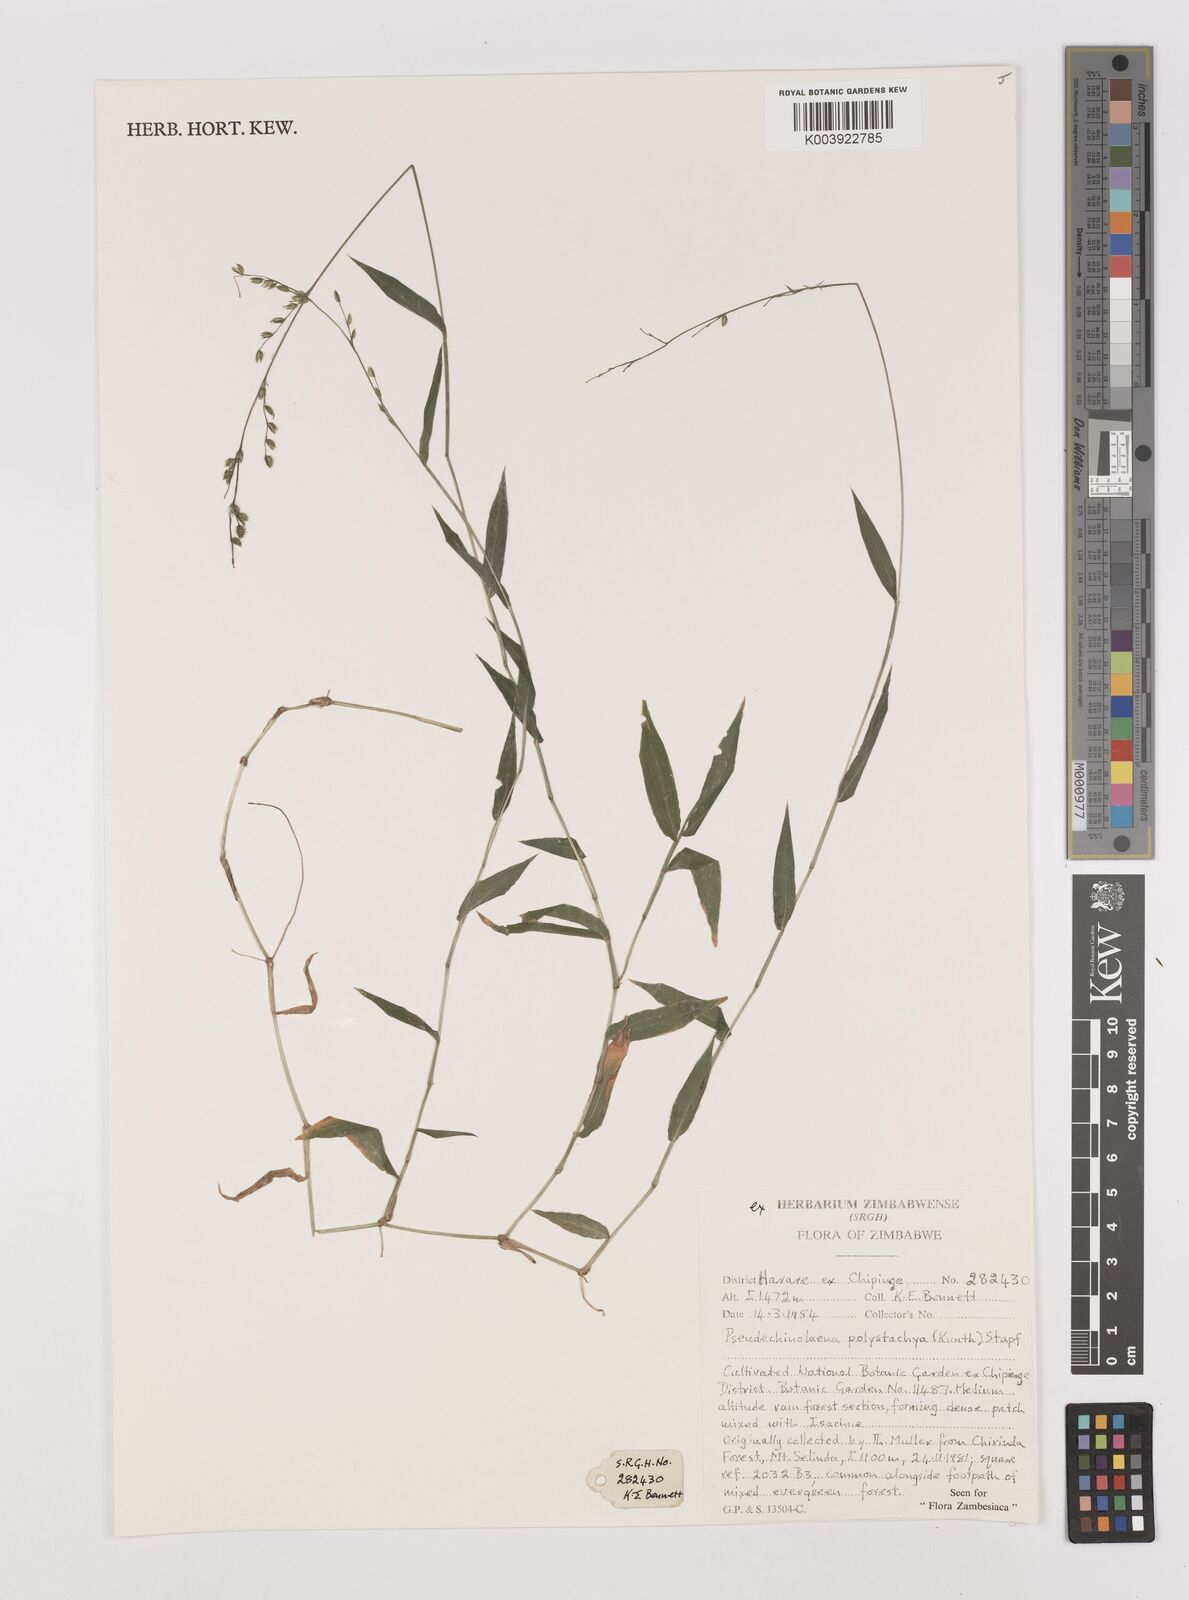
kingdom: Plantae
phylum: Tracheophyta
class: Liliopsida
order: Poales
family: Poaceae
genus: Pseudechinolaena
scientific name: Pseudechinolaena polystachya
